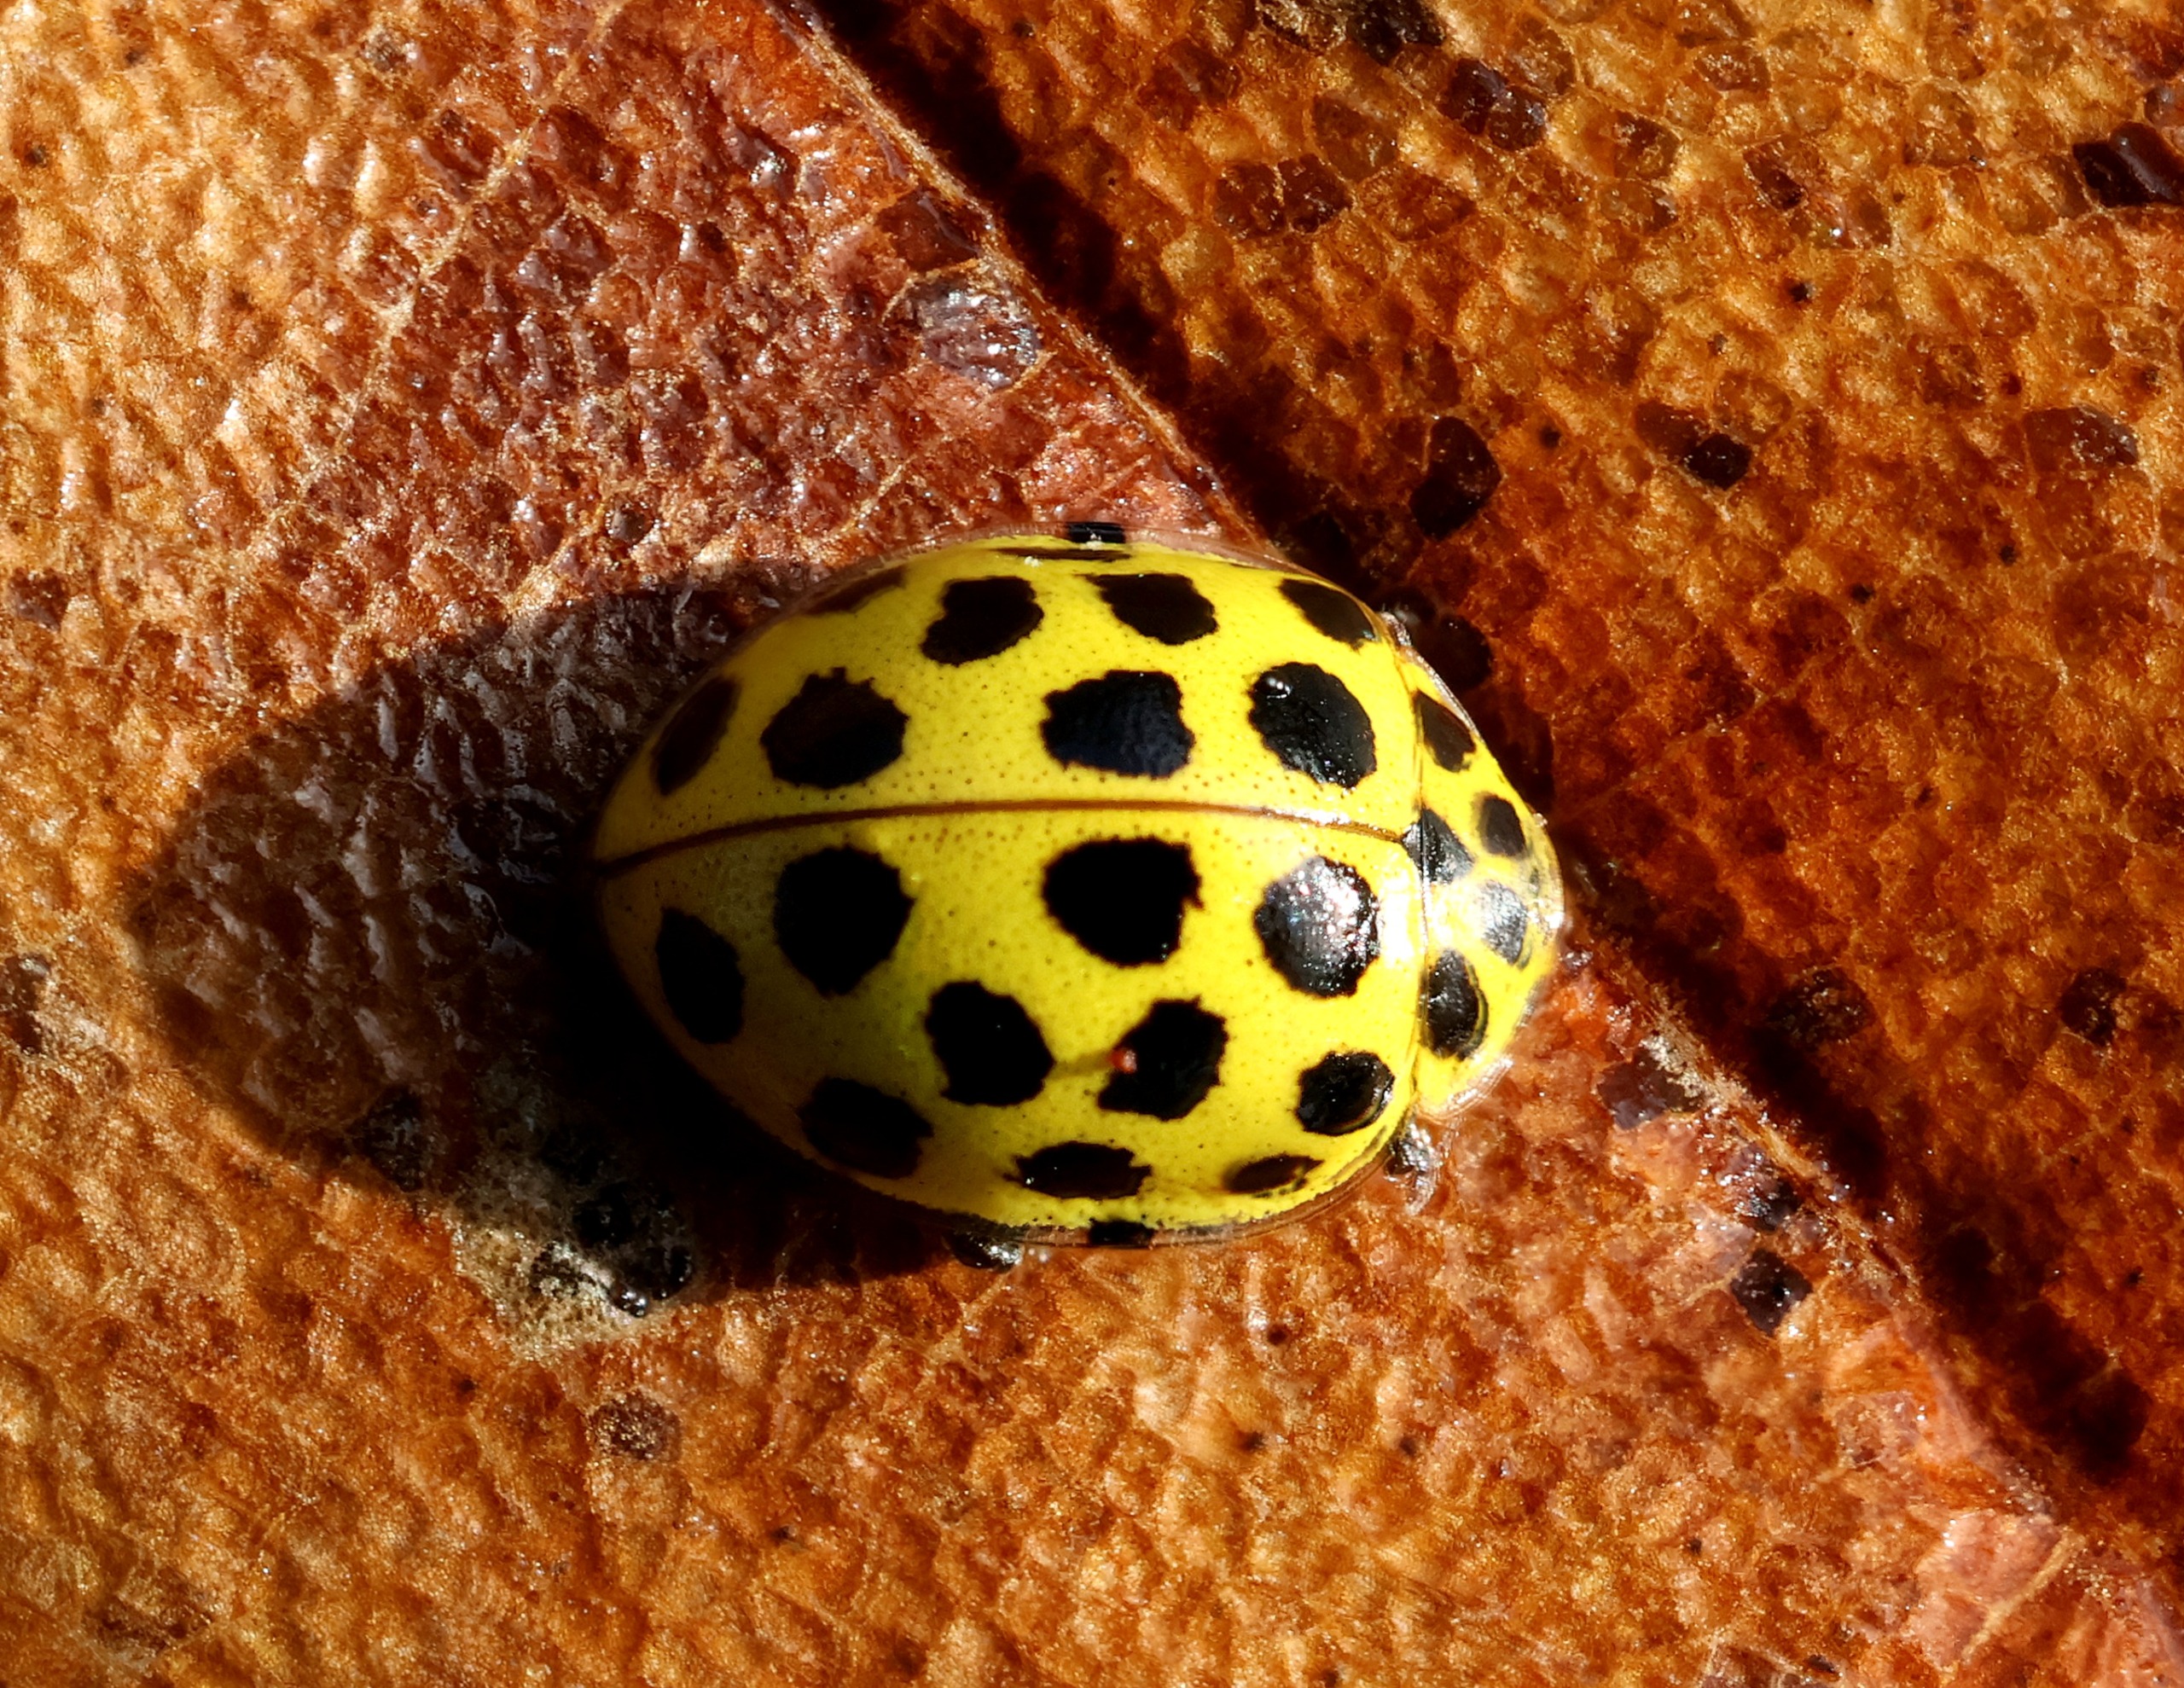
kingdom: Animalia
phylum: Arthropoda
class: Insecta
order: Coleoptera
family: Coccinellidae
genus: Psyllobora
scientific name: Psyllobora vigintiduopunctata
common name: Toogtyveplettet mariehøne
